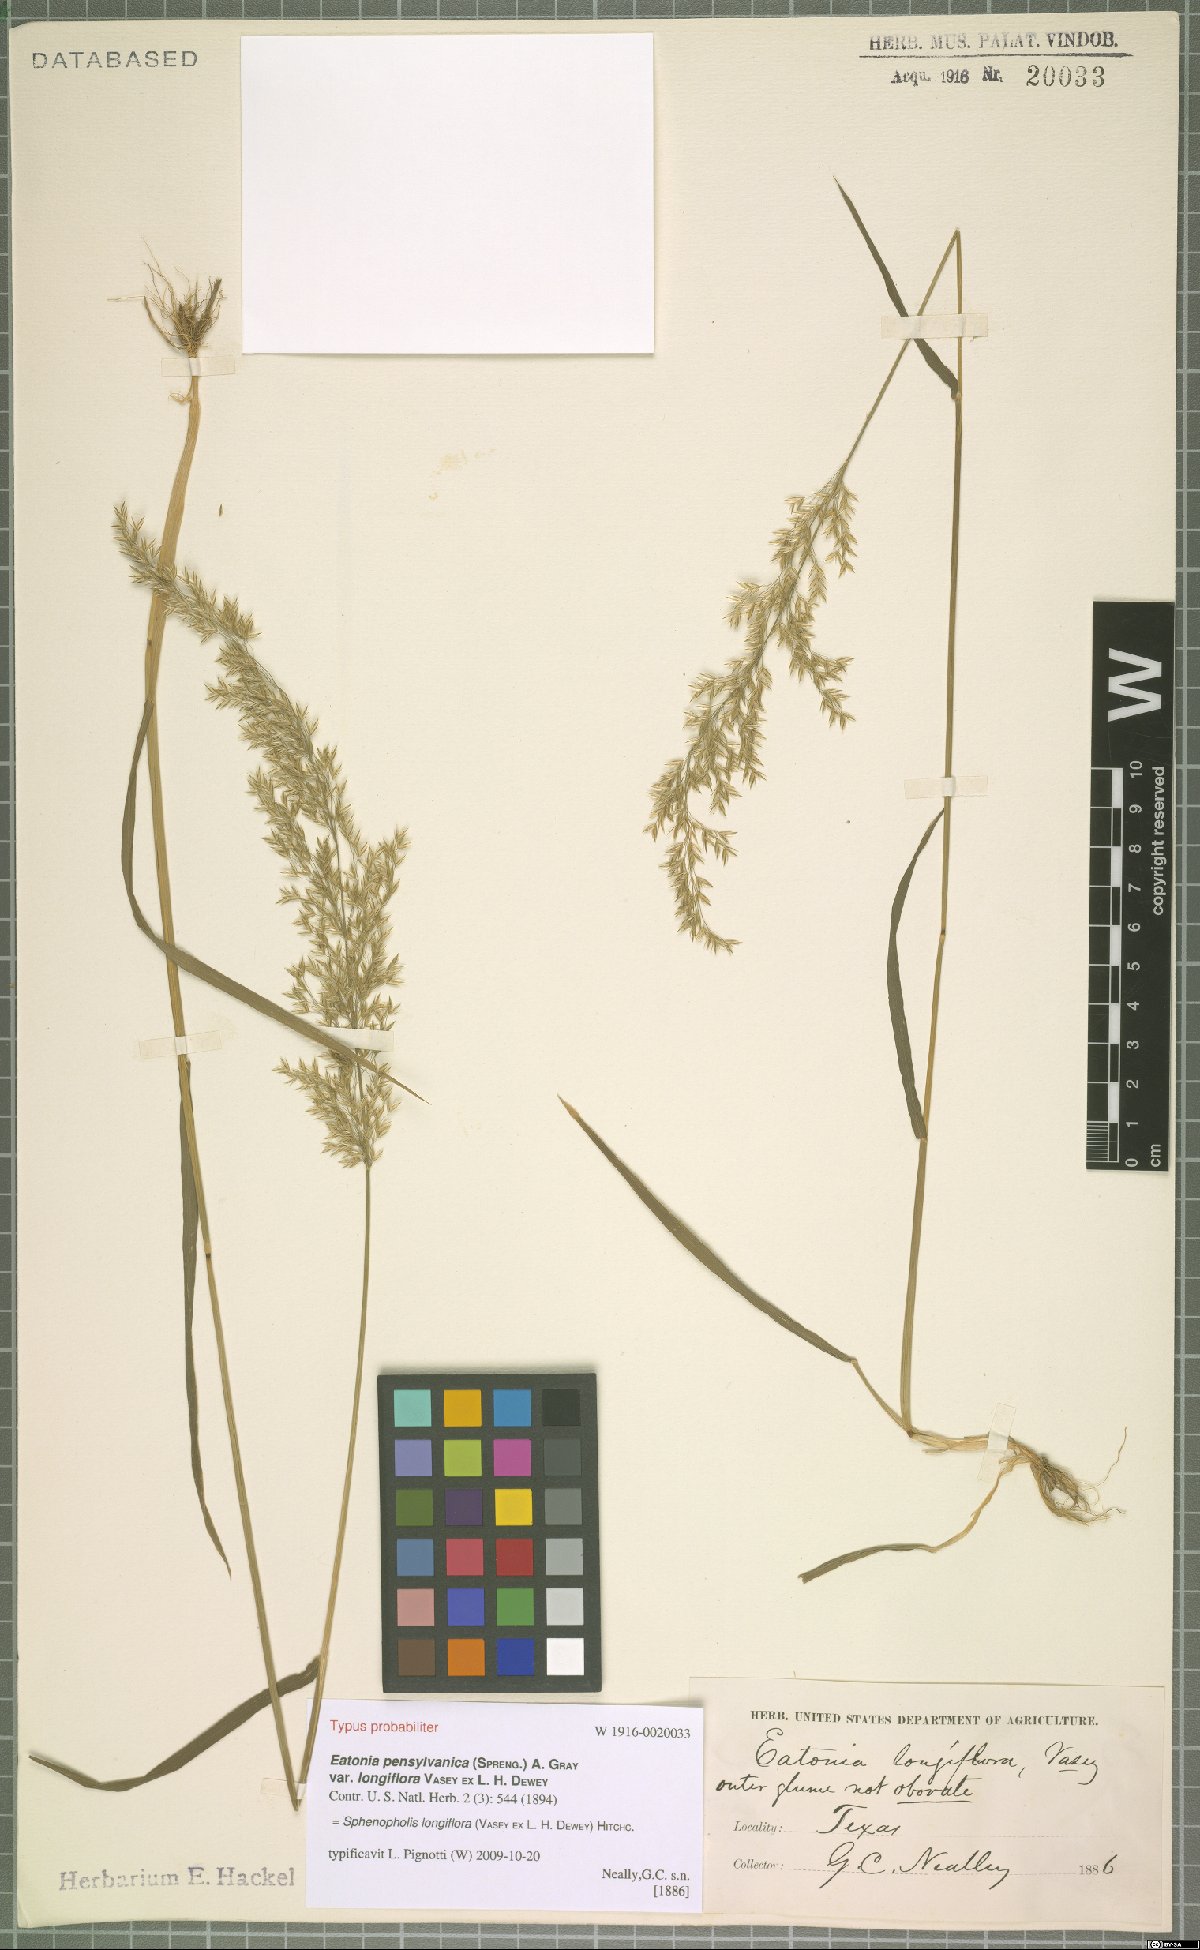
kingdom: Plantae
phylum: Tracheophyta
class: Liliopsida
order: Poales
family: Poaceae
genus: Sphenopholis
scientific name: Sphenopholis intermedia
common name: Intermediate eaton's grass
